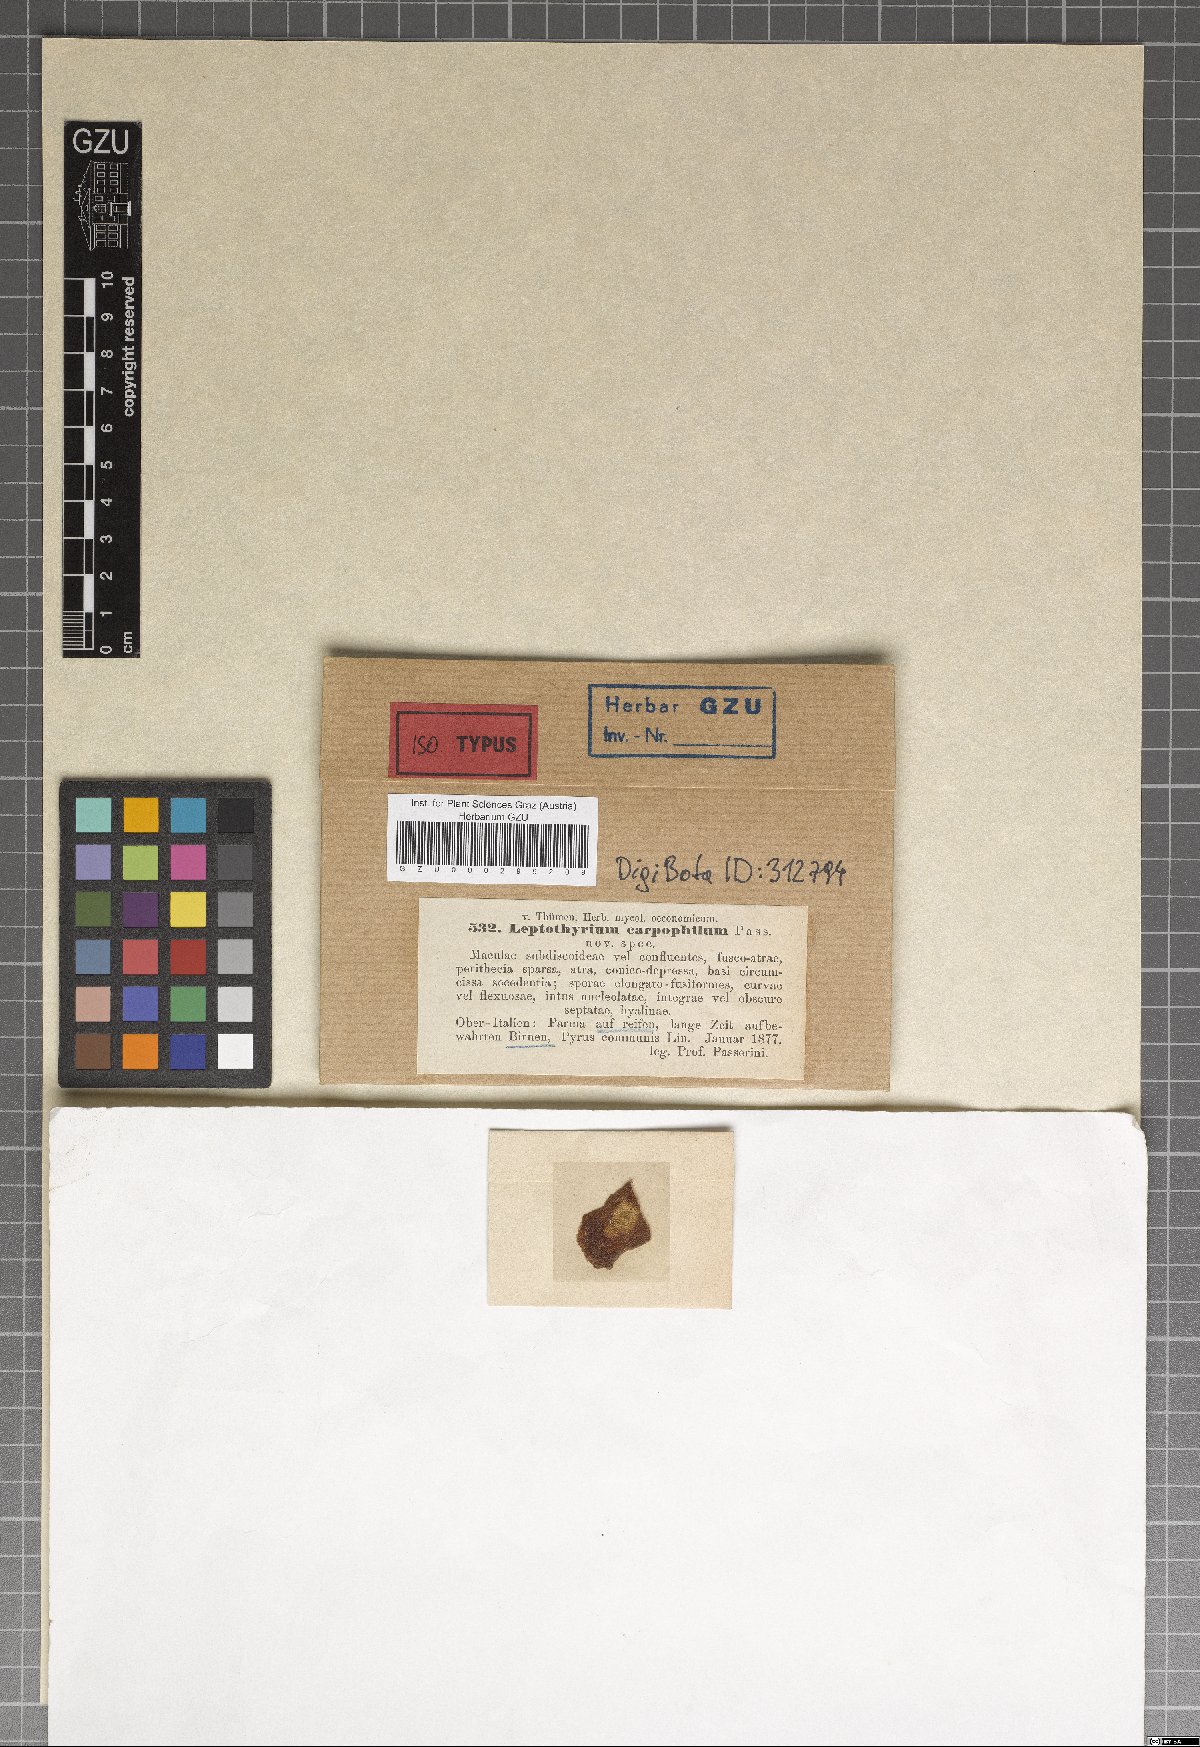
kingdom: Fungi
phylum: Ascomycota
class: Dothideomycetes
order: Pleosporales
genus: Leptothyrium
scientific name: Leptothyrium
